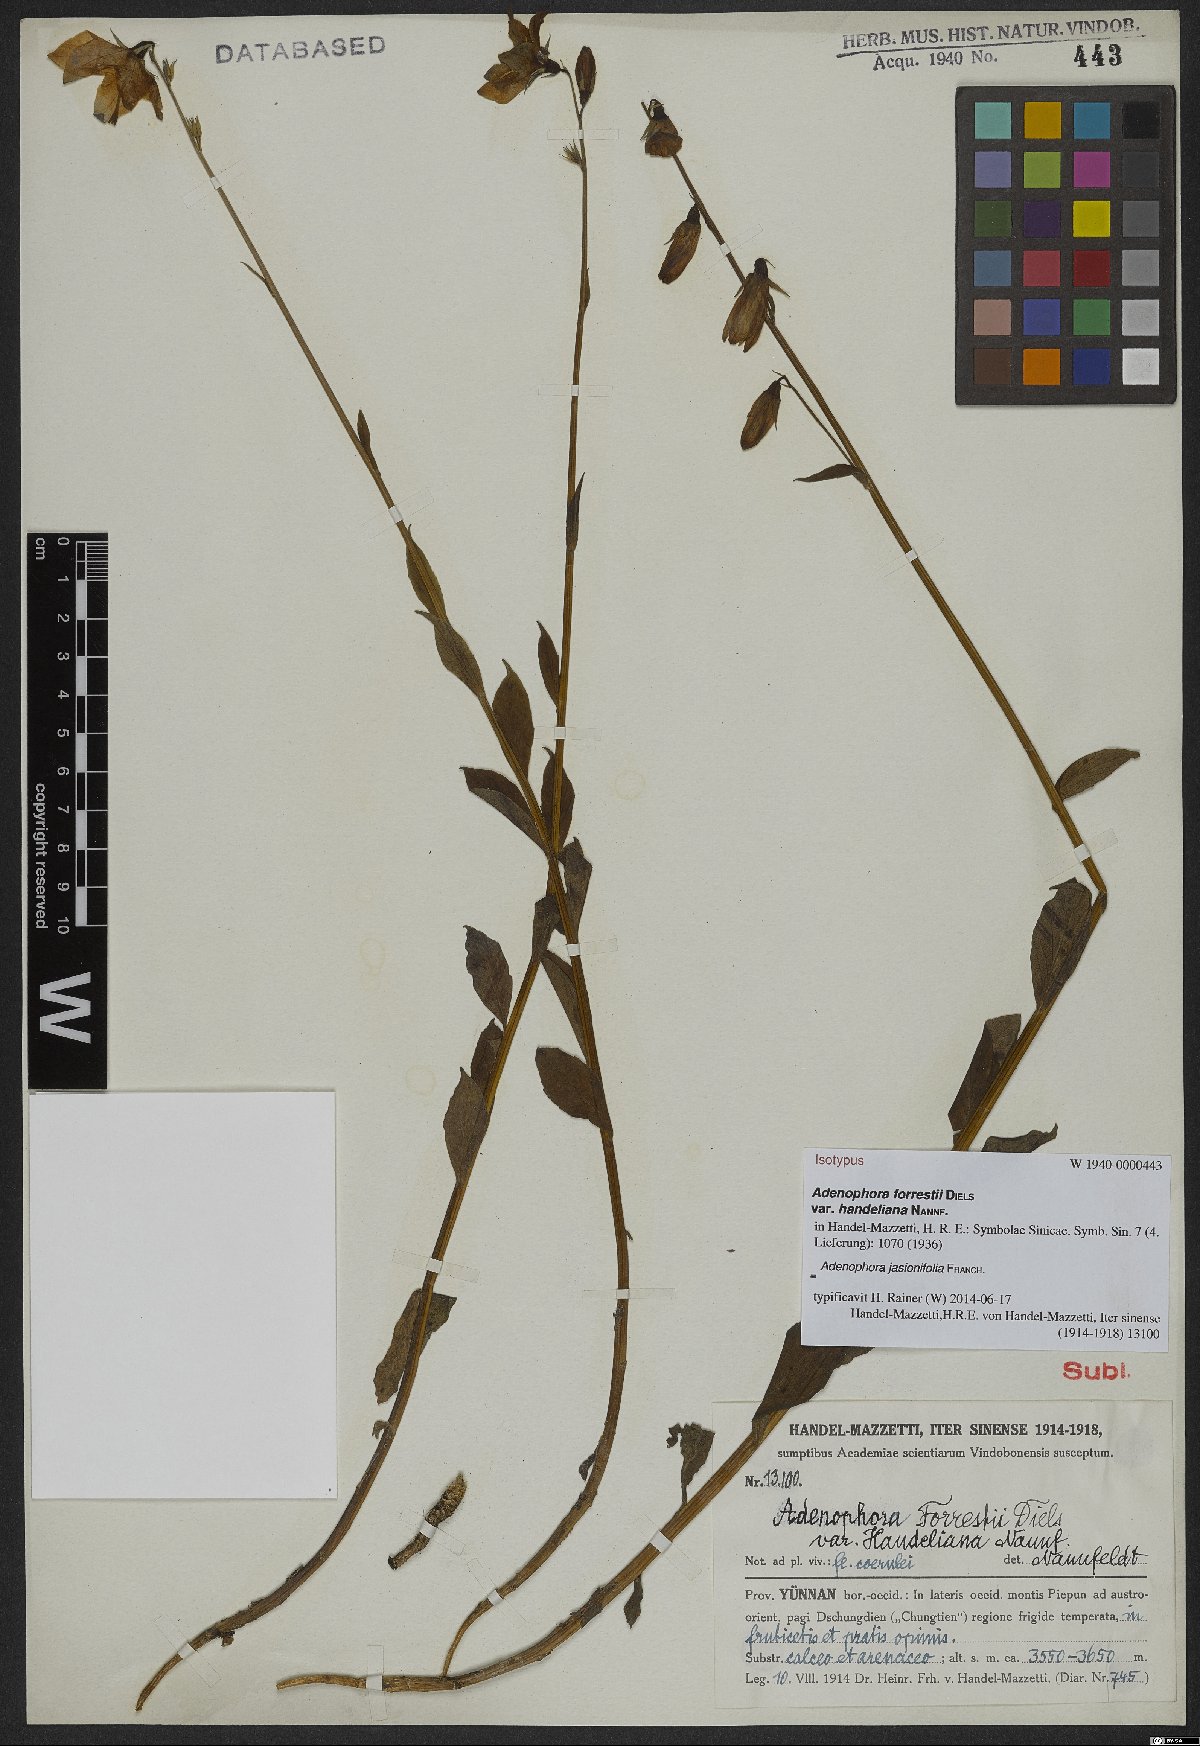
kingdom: Plantae
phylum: Tracheophyta
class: Magnoliopsida
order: Asterales
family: Campanulaceae
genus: Adenophora
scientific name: Adenophora jasionifolia
